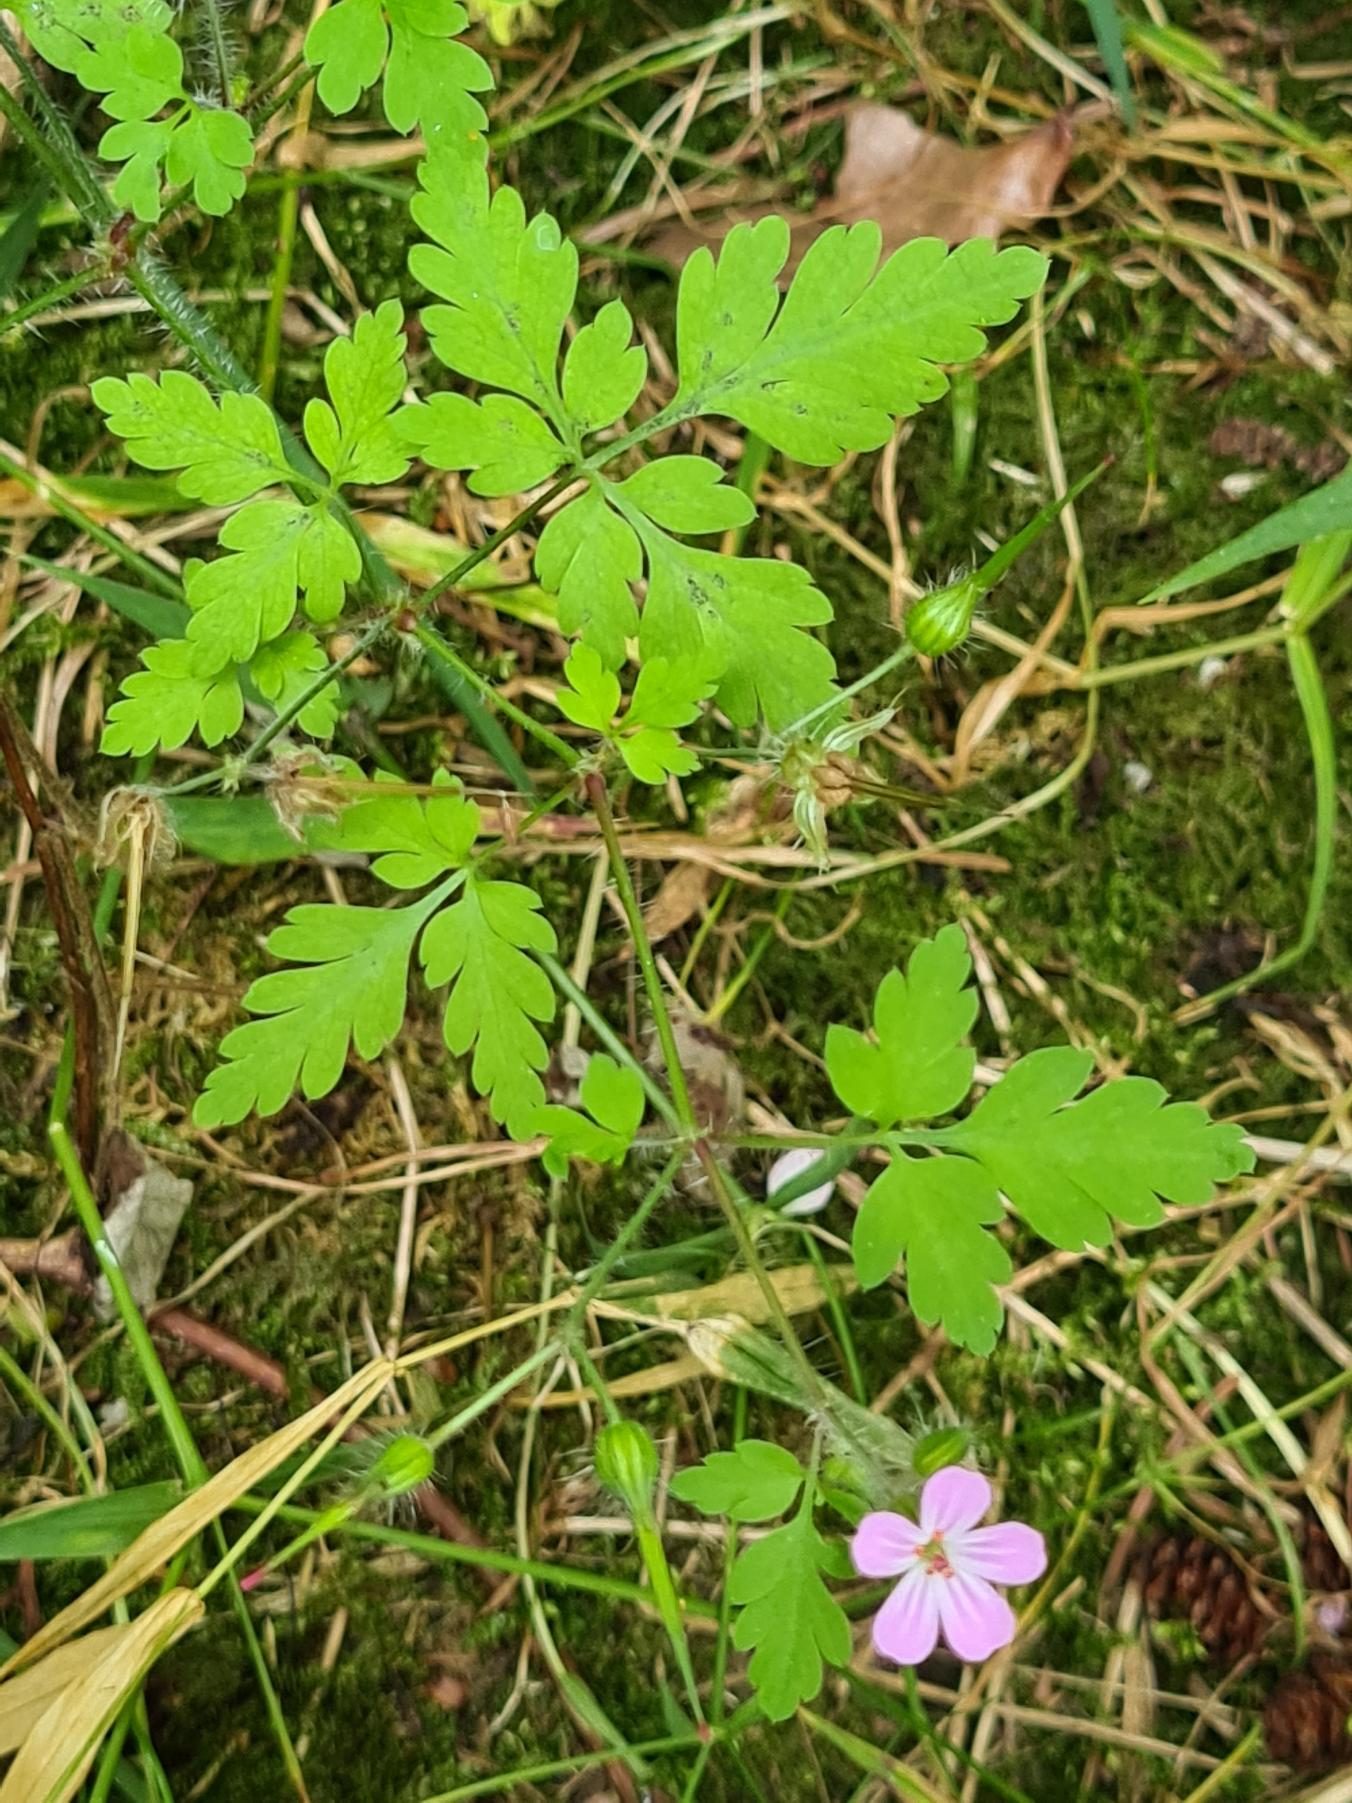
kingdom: Plantae
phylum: Tracheophyta
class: Magnoliopsida
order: Geraniales
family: Geraniaceae
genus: Geranium
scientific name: Geranium robertianum
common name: Stinkende storkenæb
